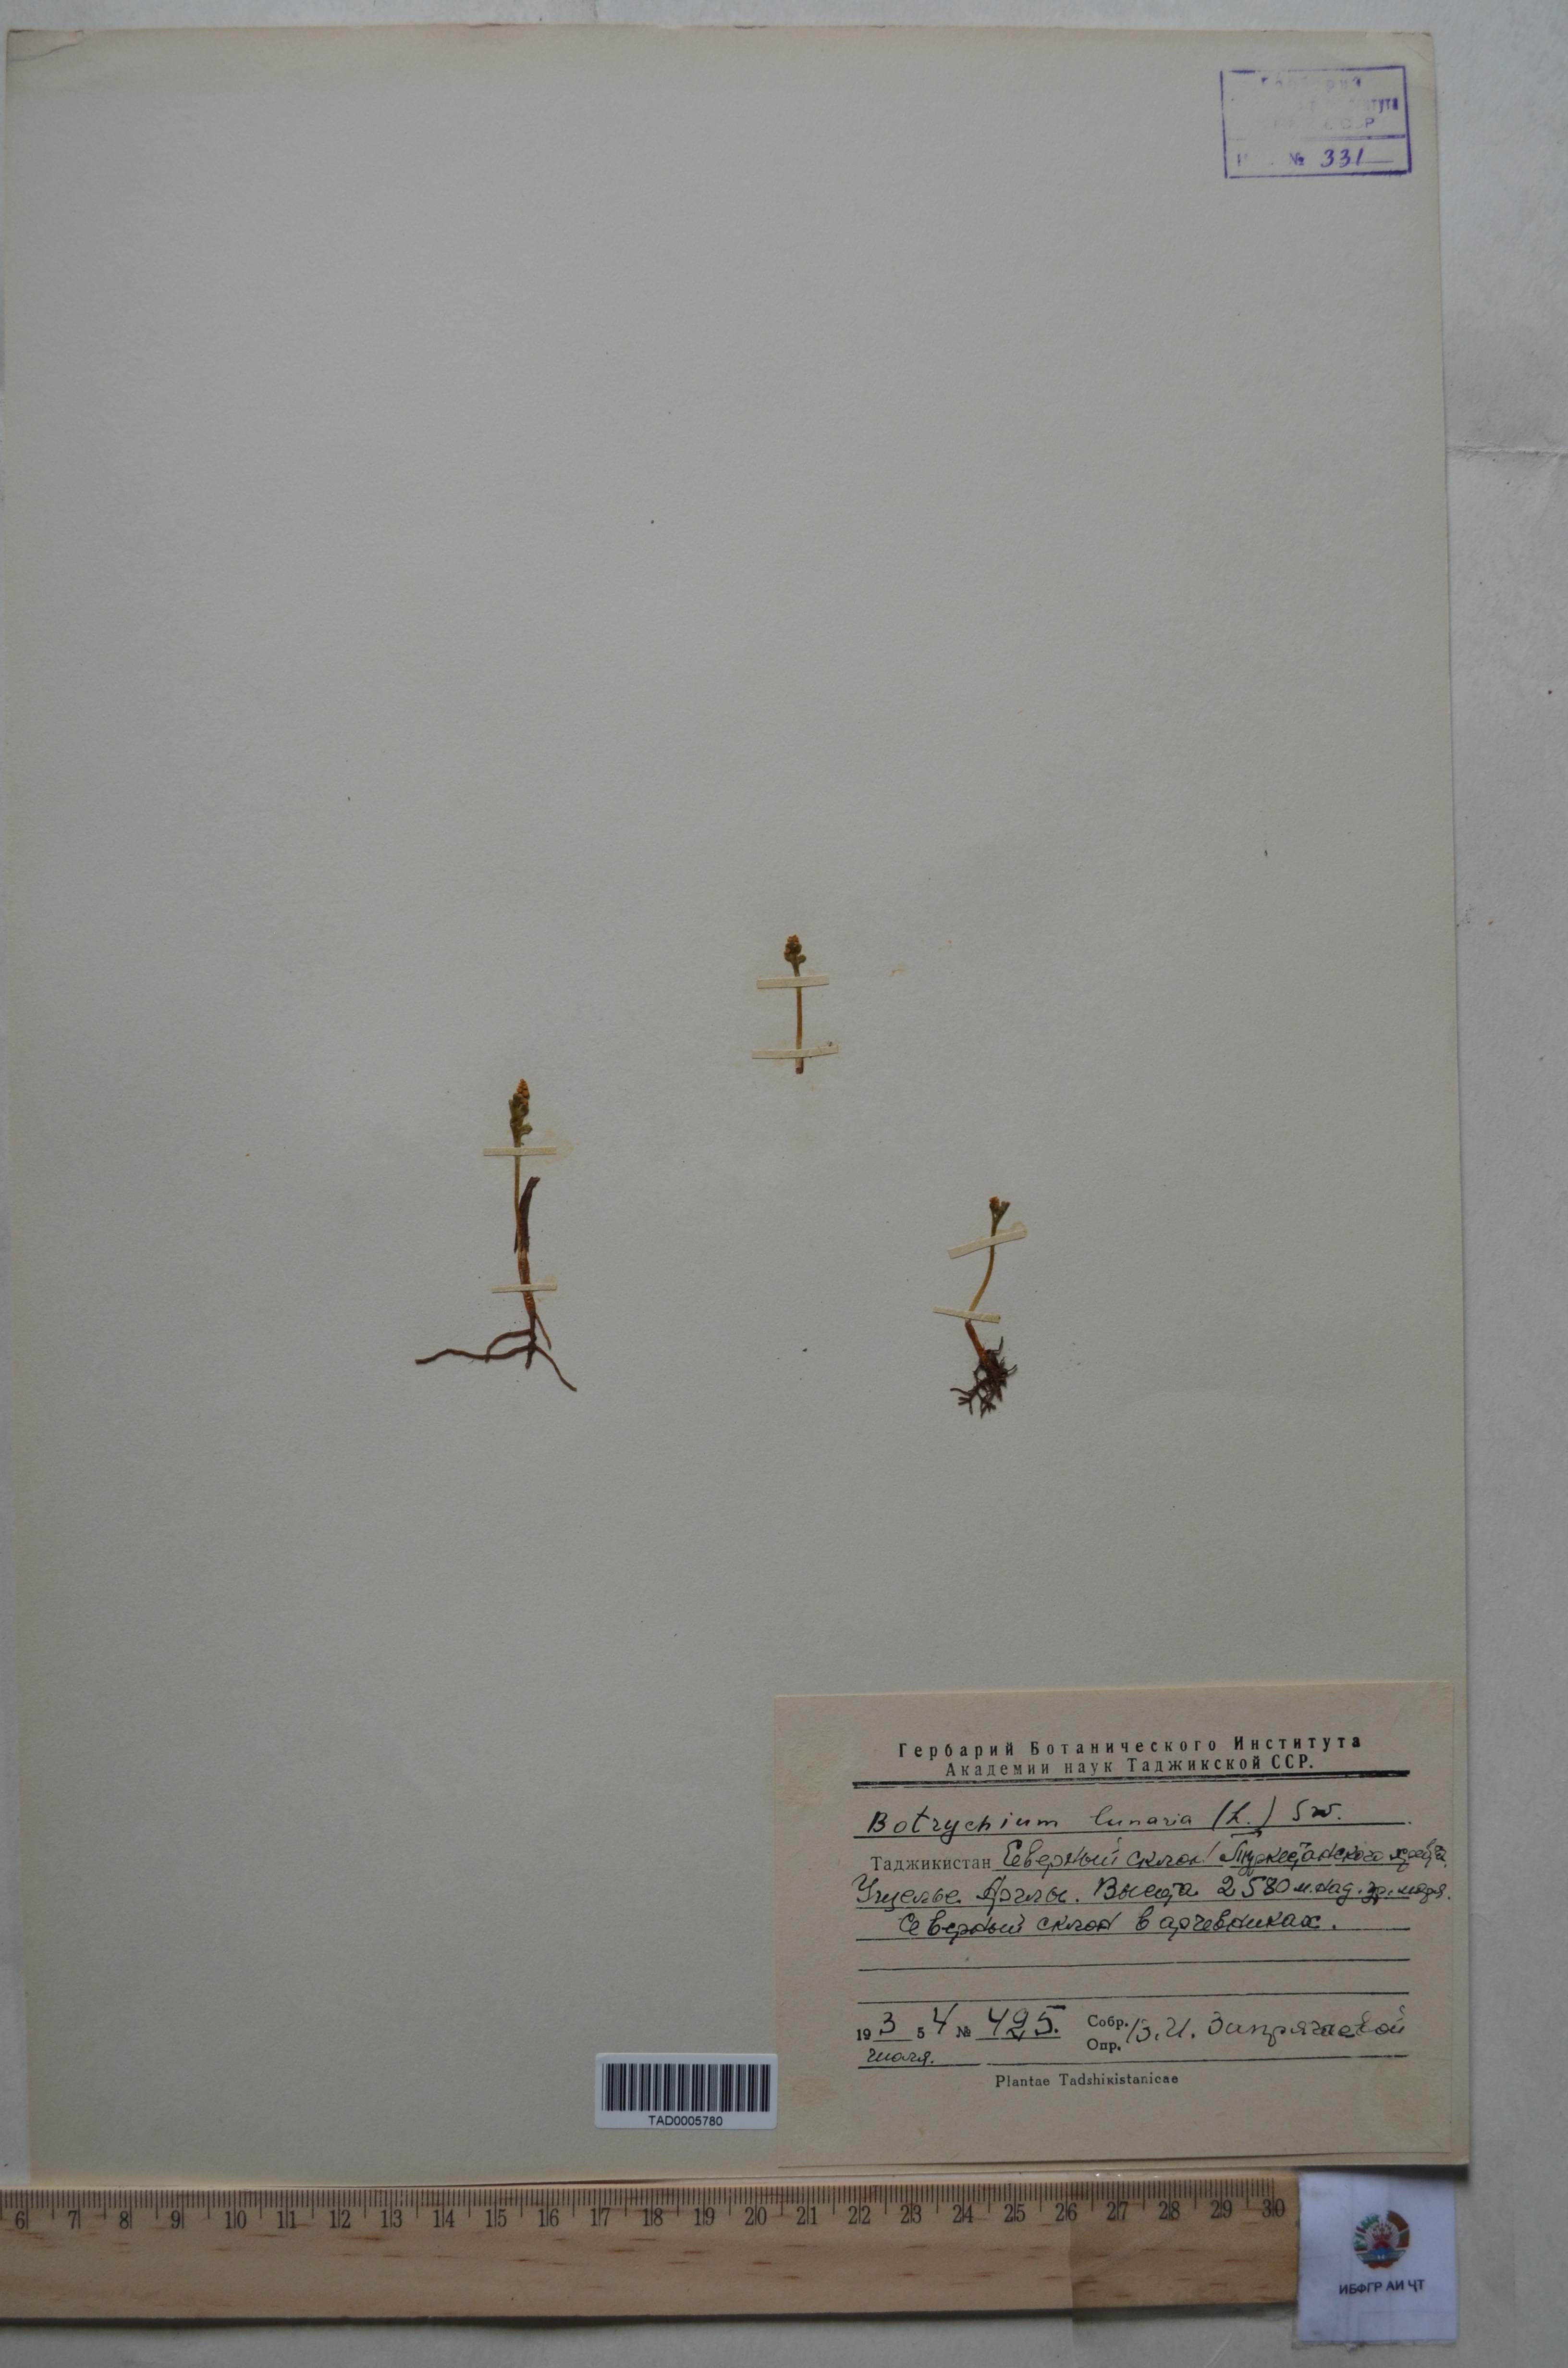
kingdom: Plantae
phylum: Tracheophyta
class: Polypodiopsida
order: Ophioglossales
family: Ophioglossaceae
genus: Botrychium
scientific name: Botrychium lunaria
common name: Moonwort
